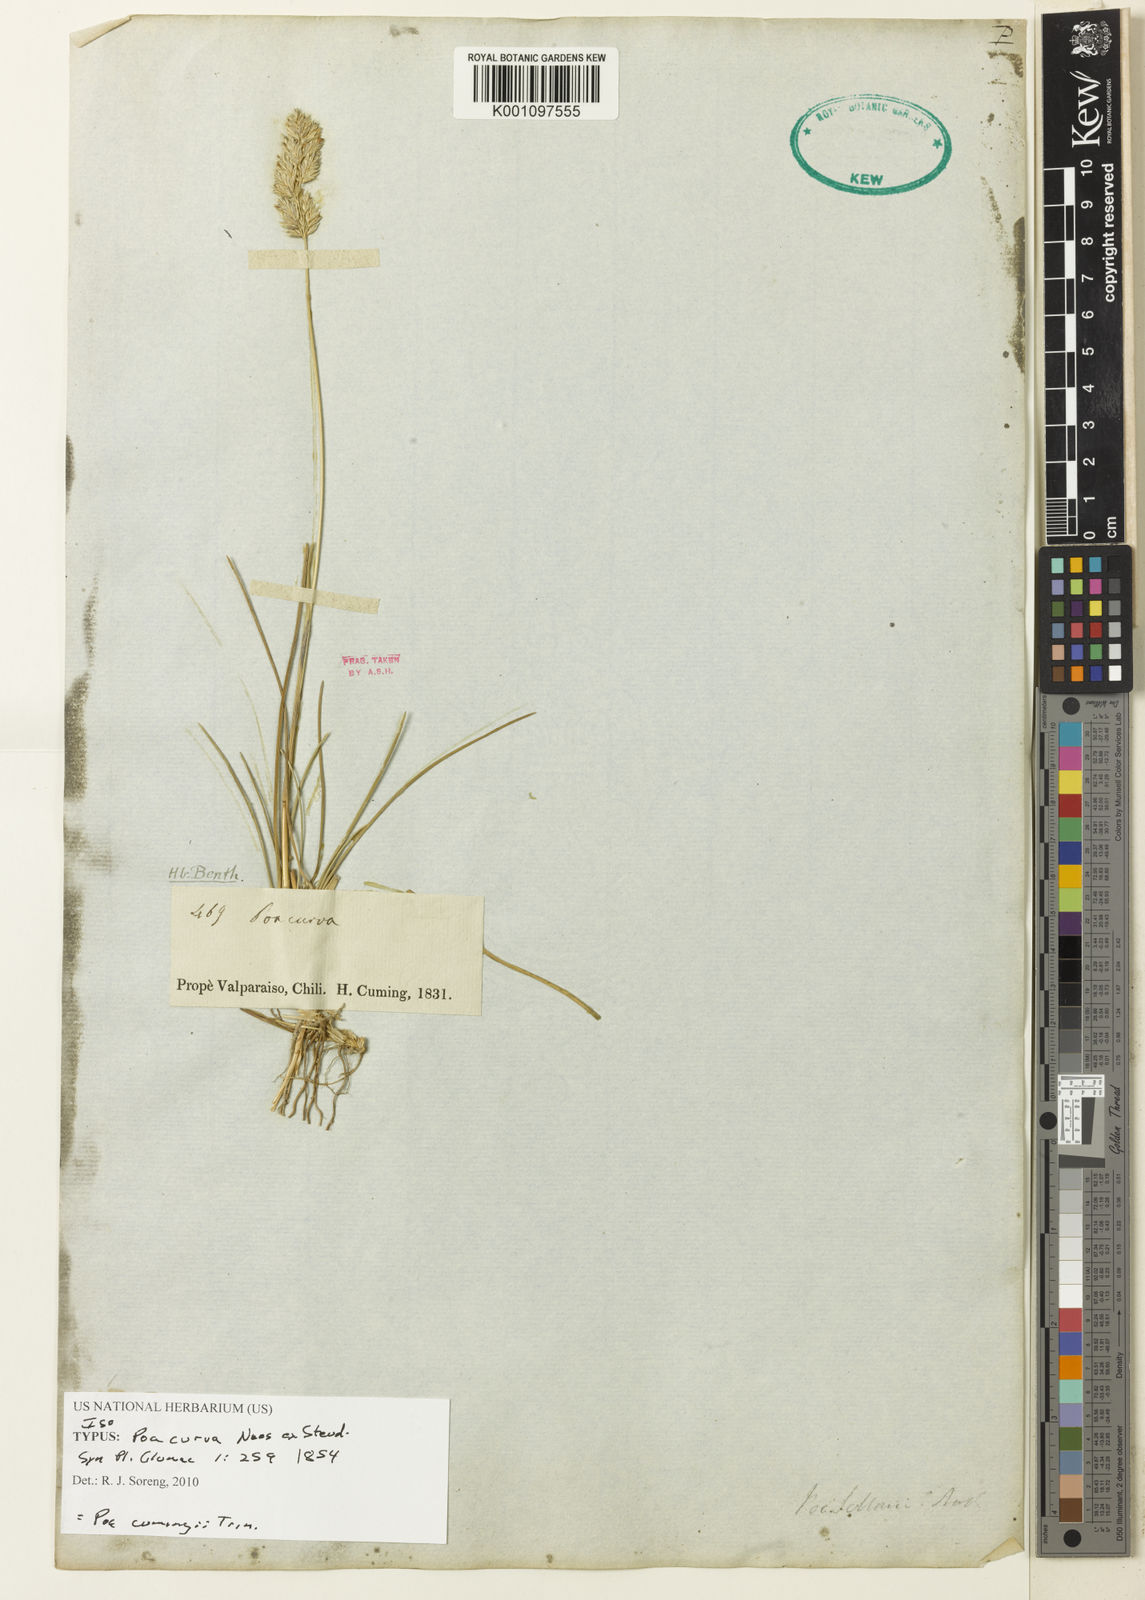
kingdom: Plantae
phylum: Tracheophyta
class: Liliopsida
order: Poales
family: Poaceae
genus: Poa
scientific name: Poa obvallata
